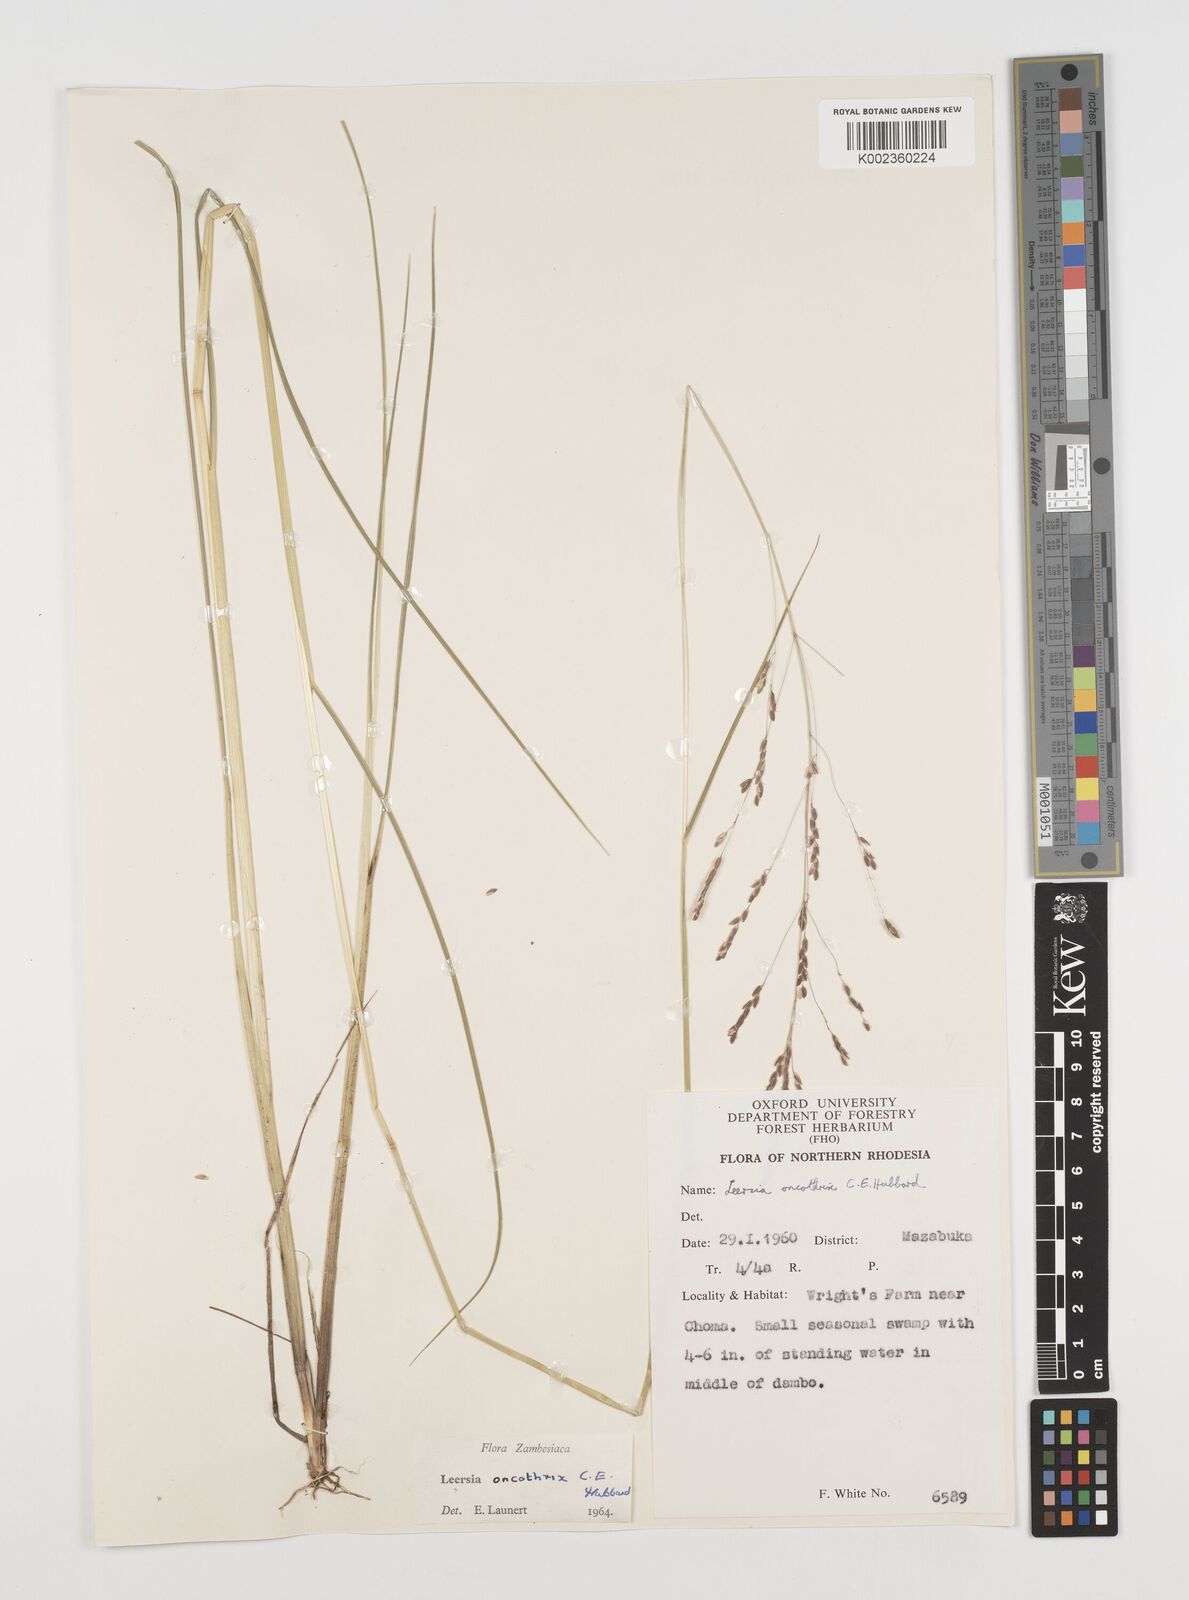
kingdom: Plantae
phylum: Tracheophyta
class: Liliopsida
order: Poales
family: Poaceae
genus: Leersia
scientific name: Leersia oncothrix
